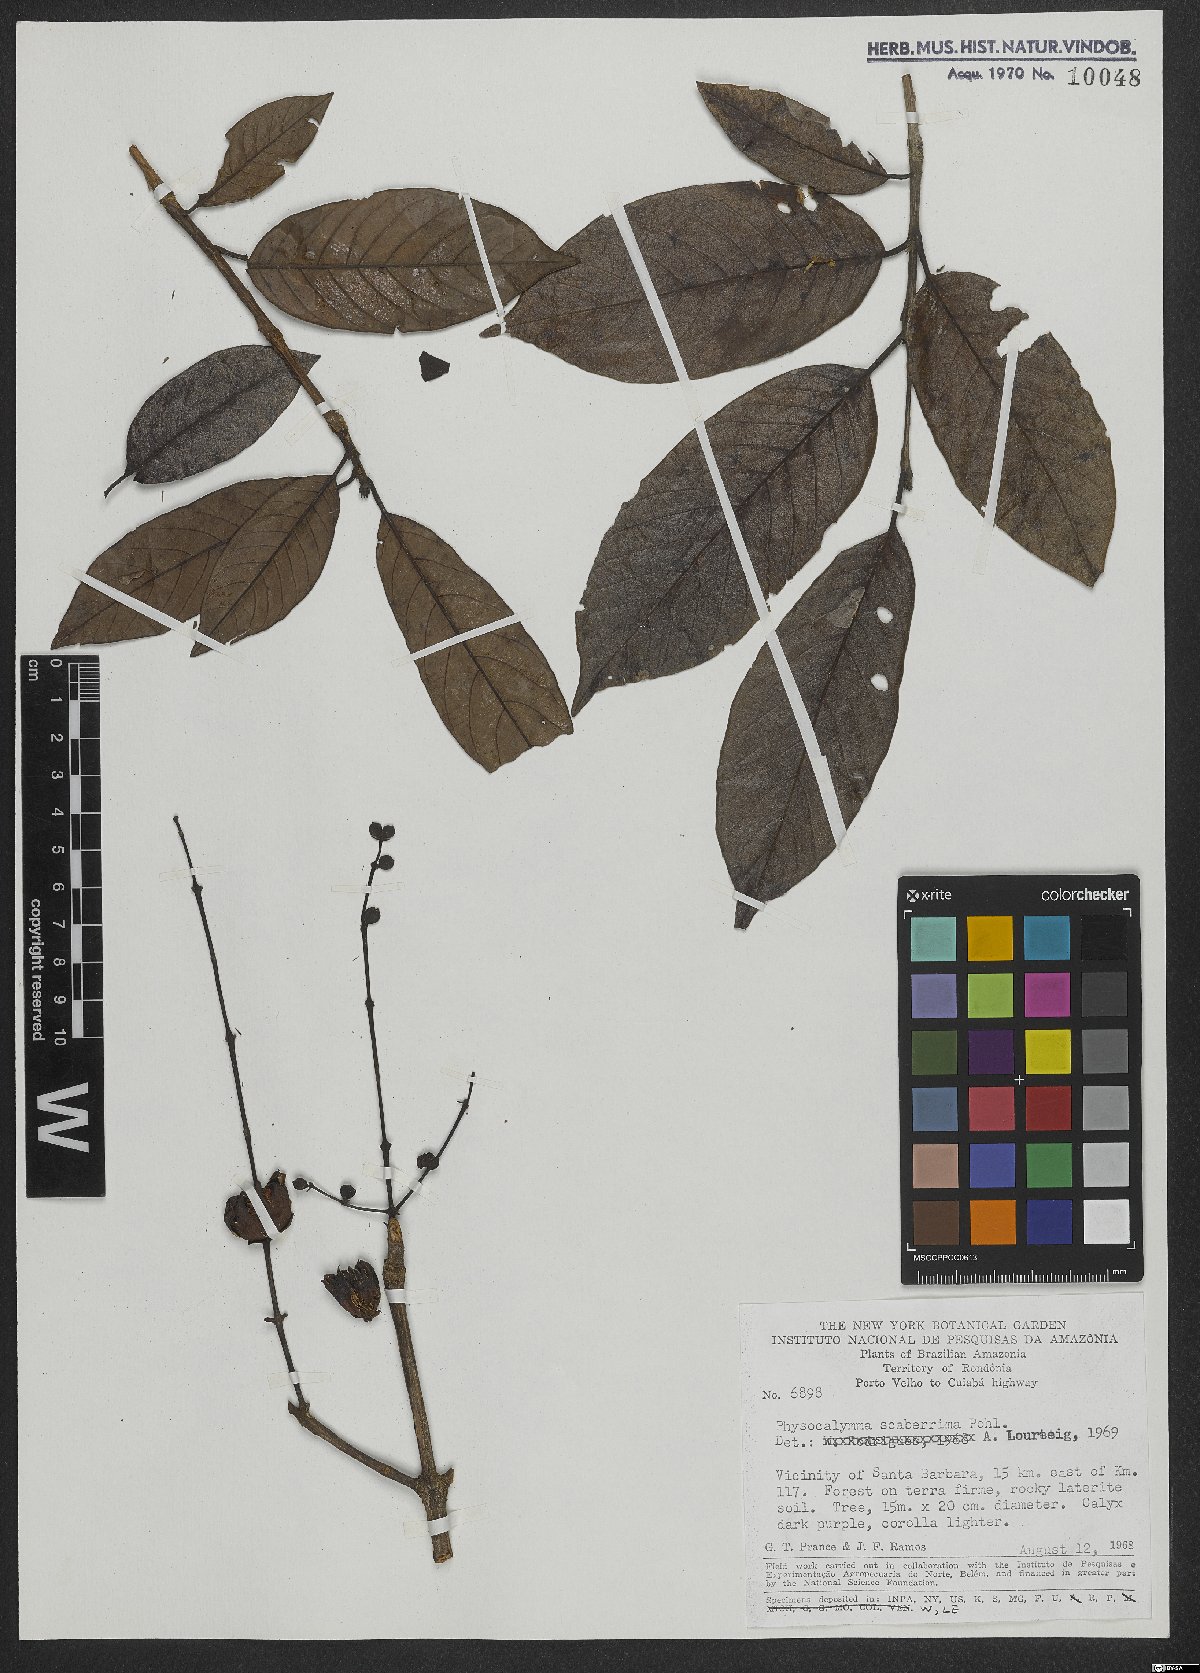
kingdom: Plantae
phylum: Tracheophyta
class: Magnoliopsida
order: Myrtales
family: Lythraceae
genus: Physocalymma
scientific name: Physocalymma scaberrimum
